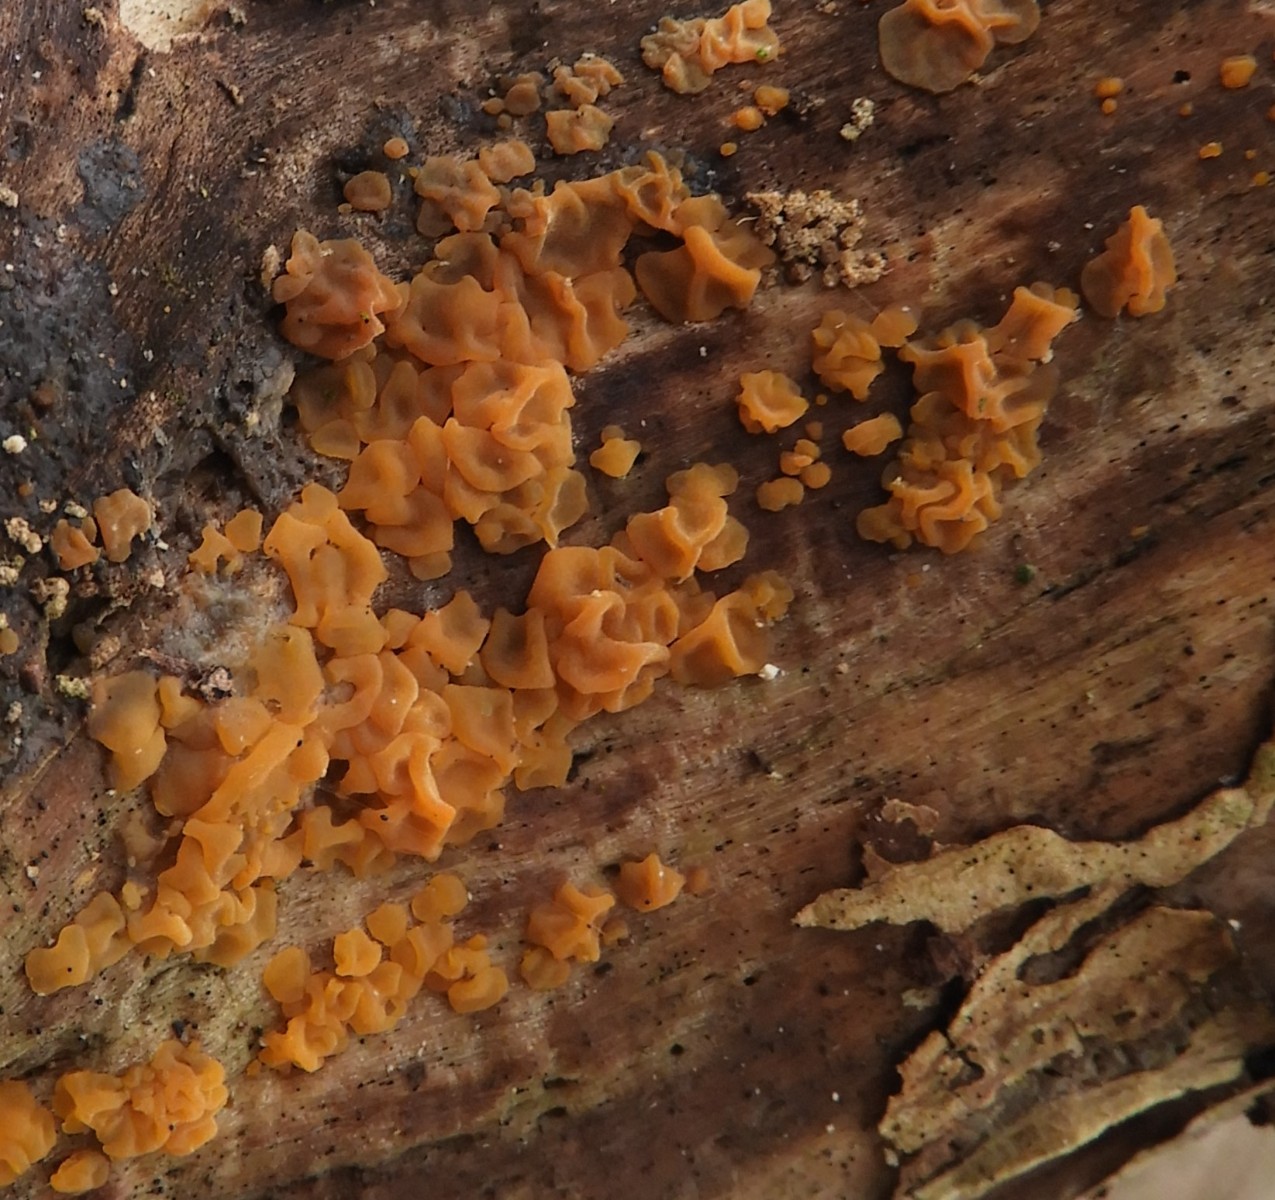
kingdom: Fungi
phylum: Basidiomycota
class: Dacrymycetes
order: Dacrymycetales
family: Dacrymycetaceae
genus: Dacrymyces
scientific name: Dacrymyces lacrymalis
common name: rynket tåresvamp
